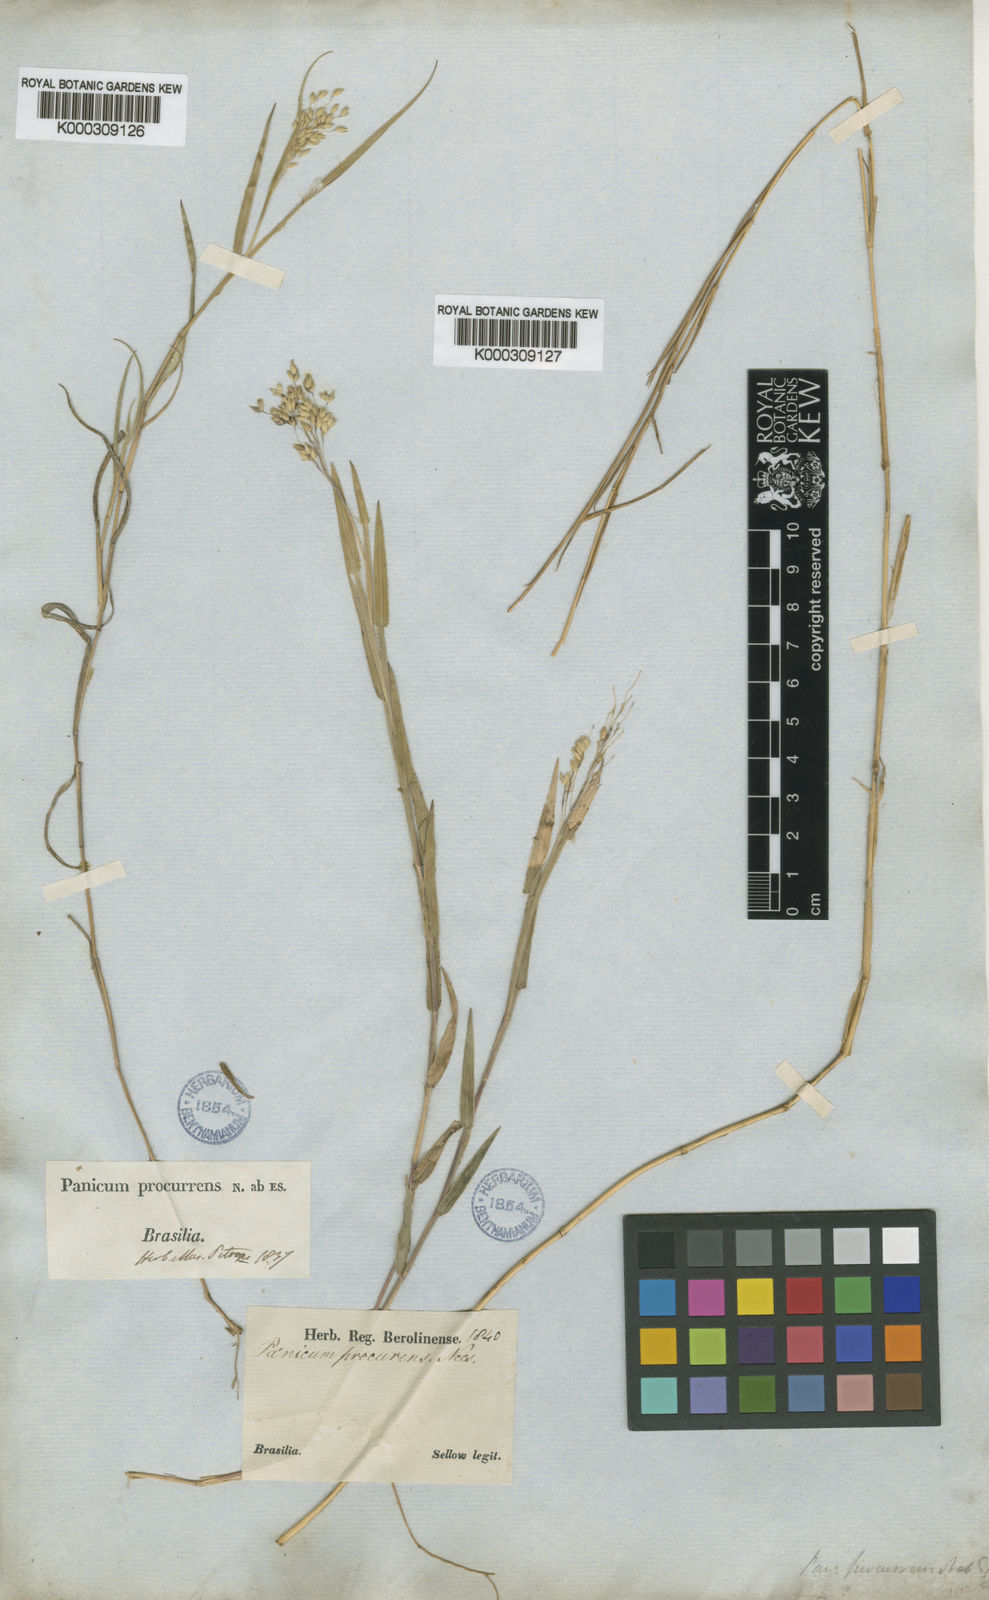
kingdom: Plantae
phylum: Tracheophyta
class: Liliopsida
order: Poales
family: Poaceae
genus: Oedochloa
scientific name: Oedochloa procurrens
